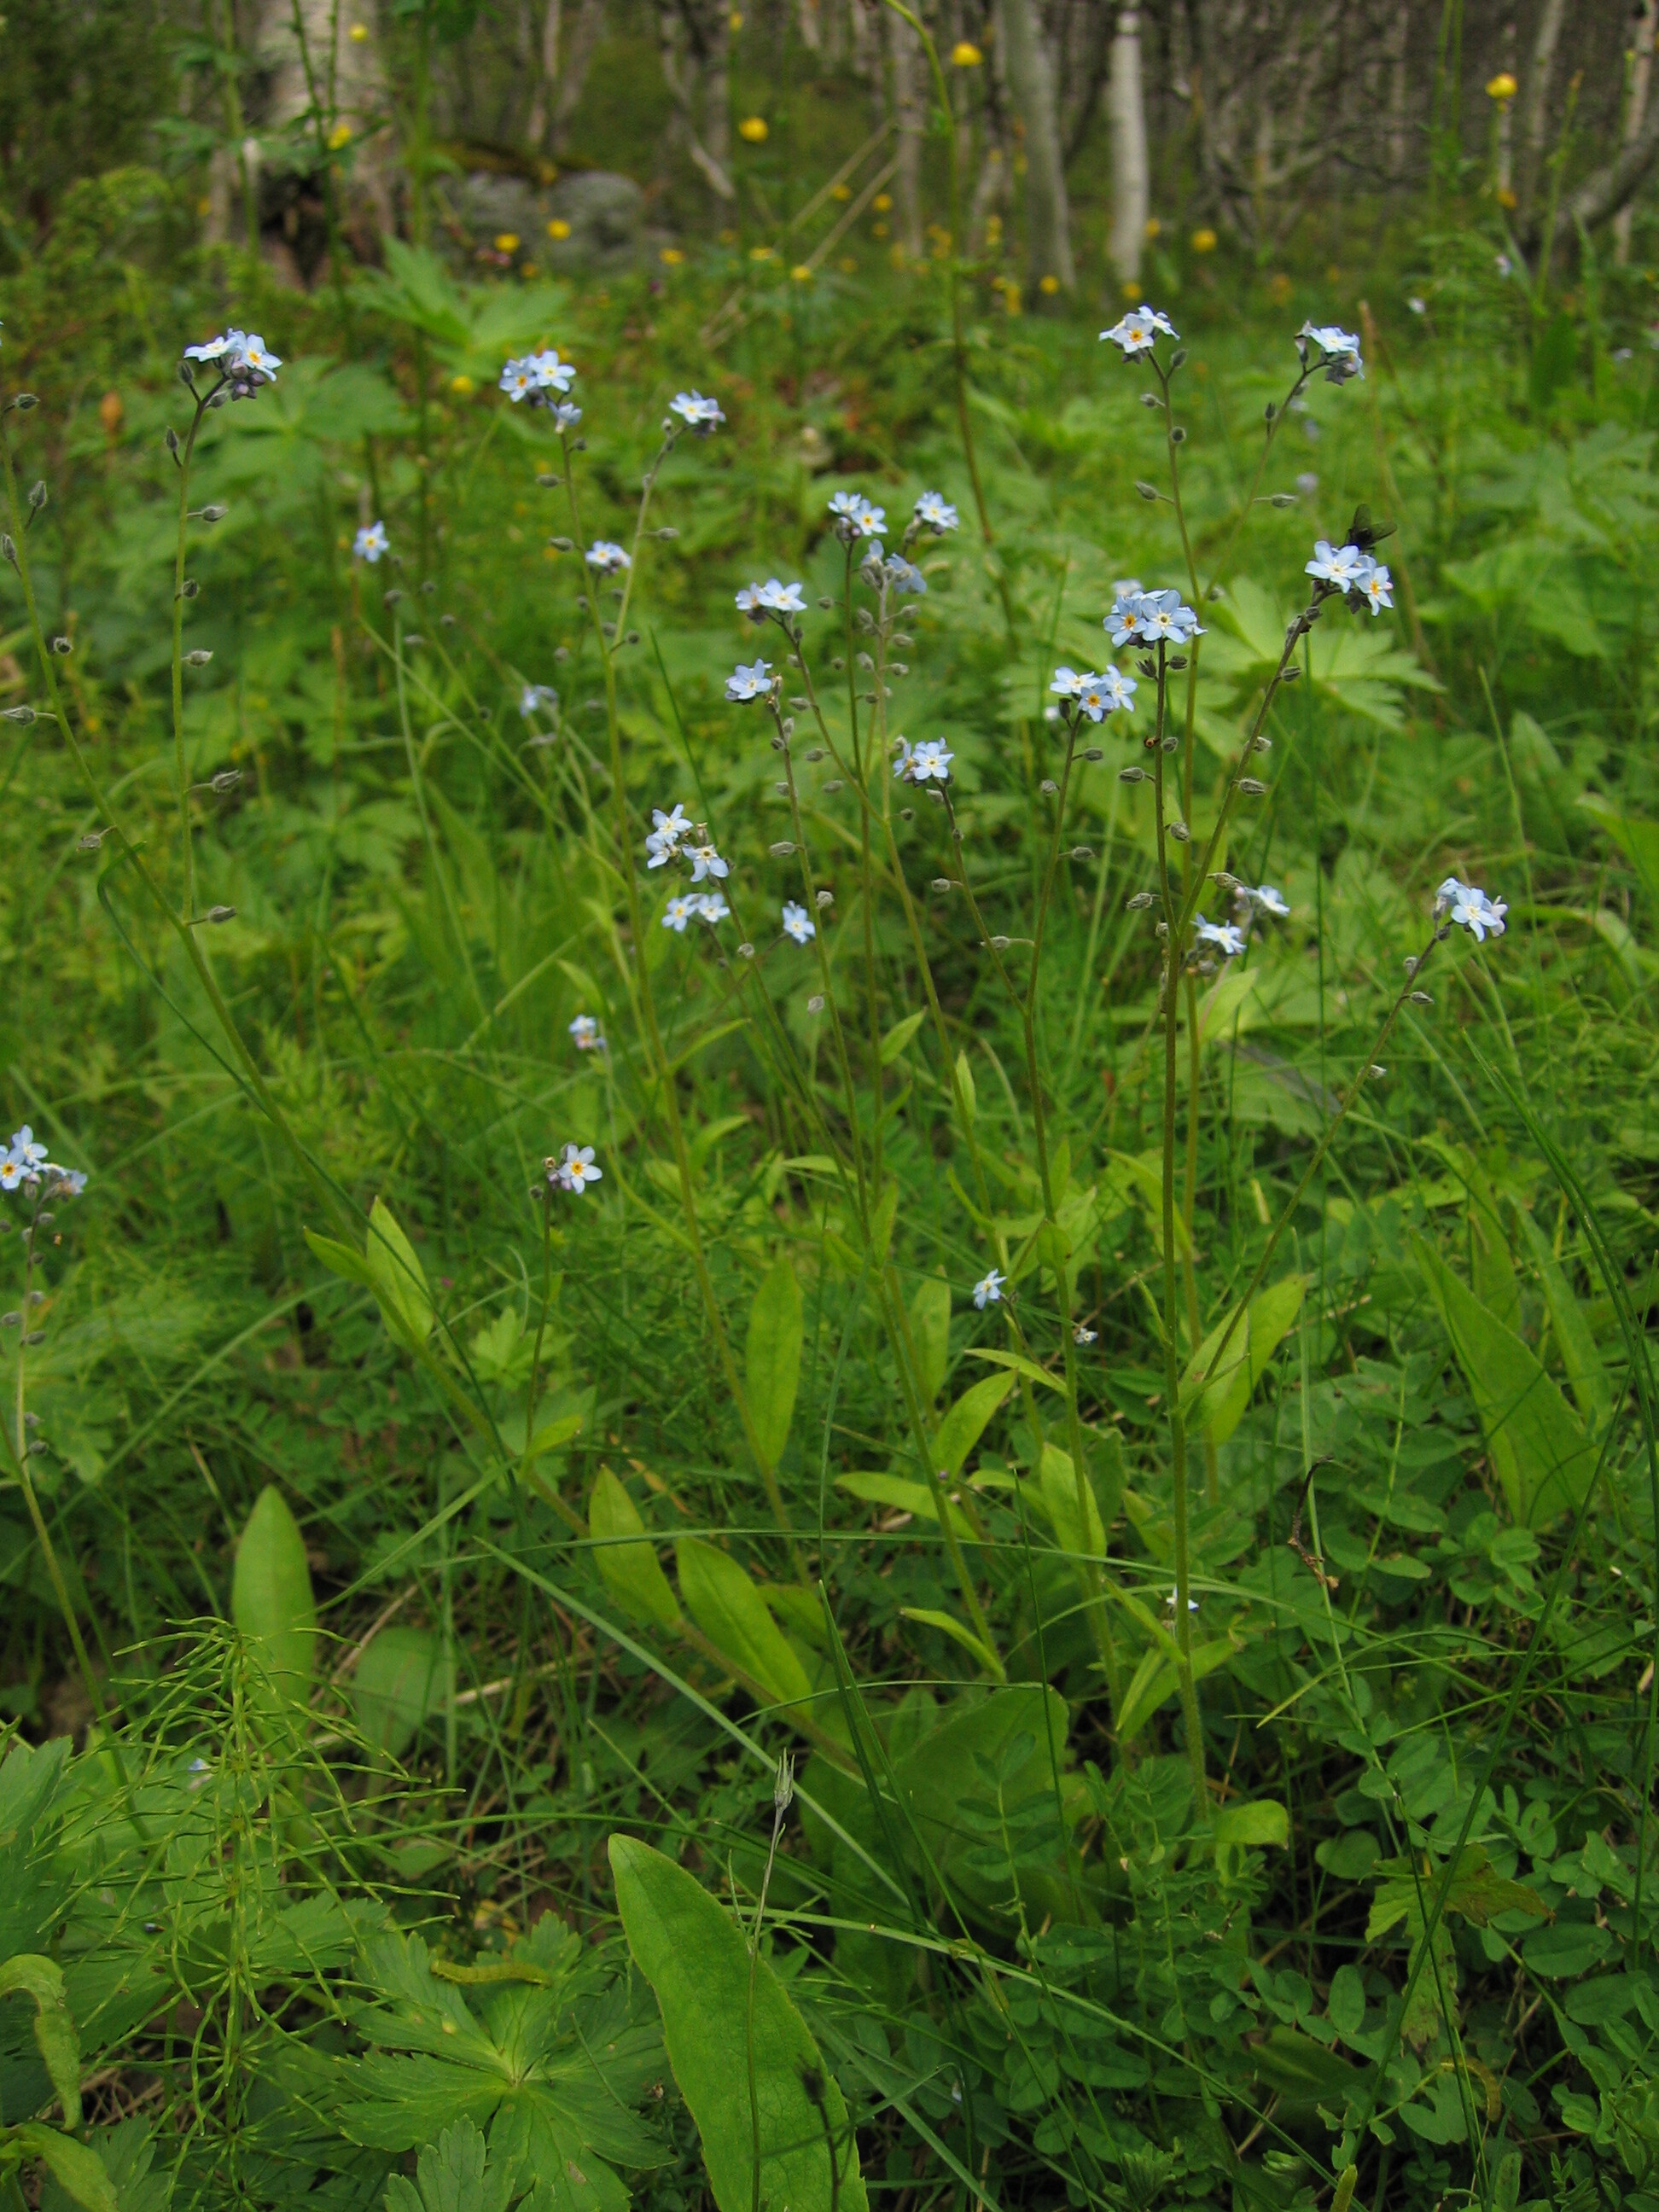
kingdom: Plantae
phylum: Tracheophyta
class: Magnoliopsida
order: Boraginales
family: Boraginaceae
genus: Myosotis
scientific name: Myosotis decumbens
